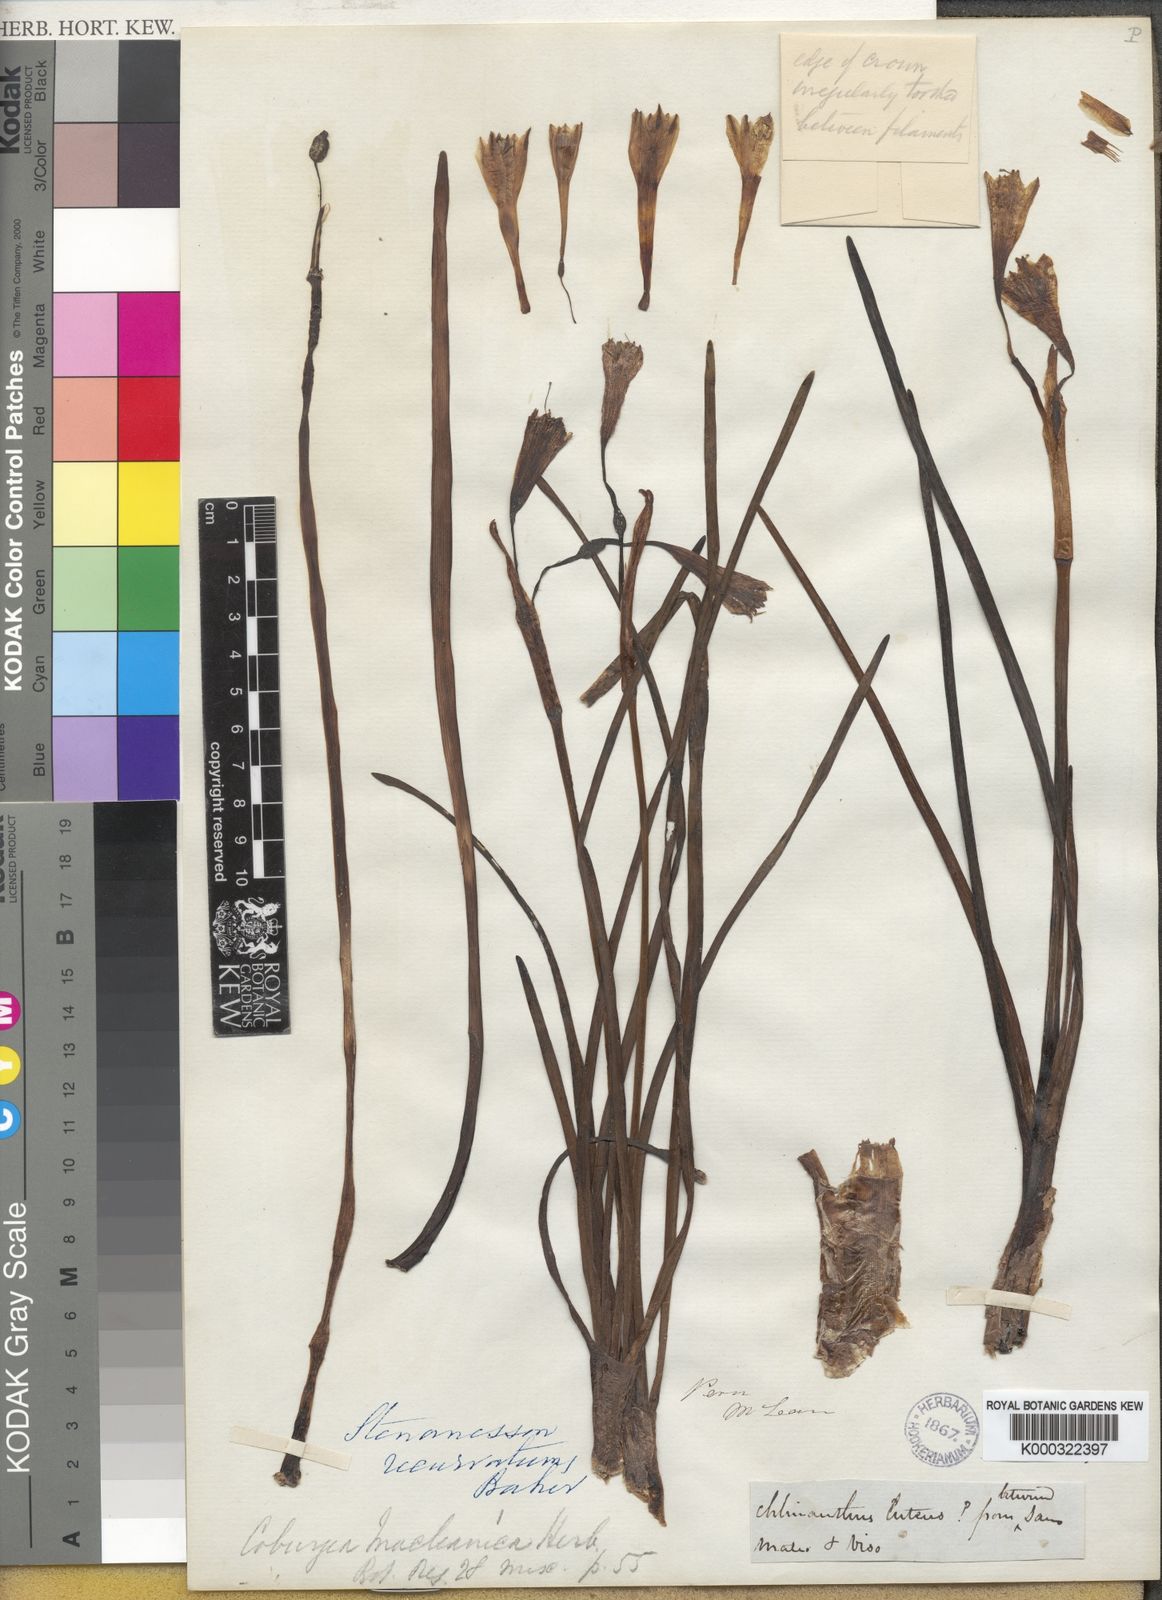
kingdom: Plantae
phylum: Tracheophyta
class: Liliopsida
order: Asparagales
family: Amaryllidaceae
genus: Clinanthus
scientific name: Clinanthus recurvatus
